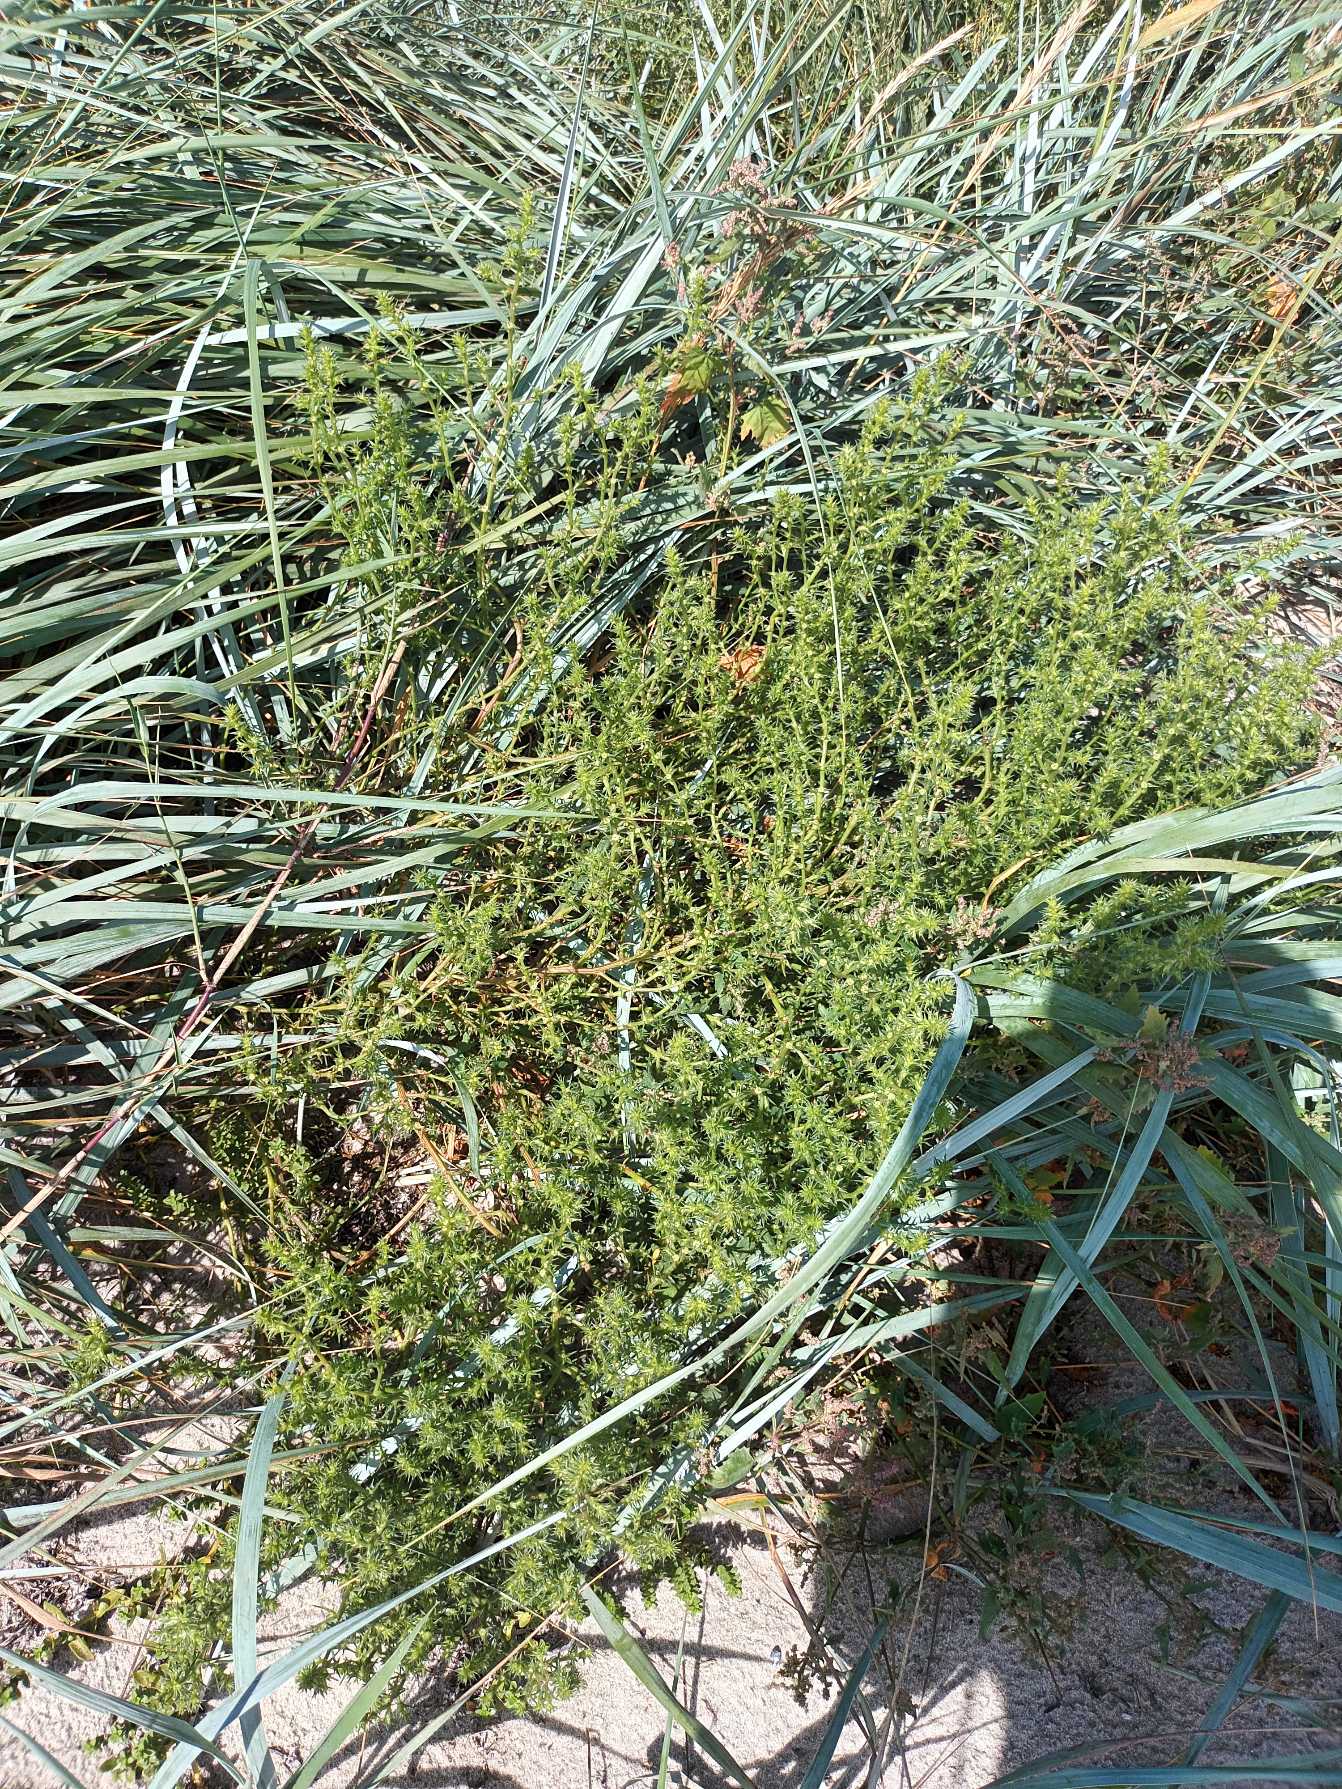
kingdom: Plantae
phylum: Tracheophyta
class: Magnoliopsida
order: Caryophyllales
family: Amaranthaceae
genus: Salsola
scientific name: Salsola kali
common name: Sodaurt
